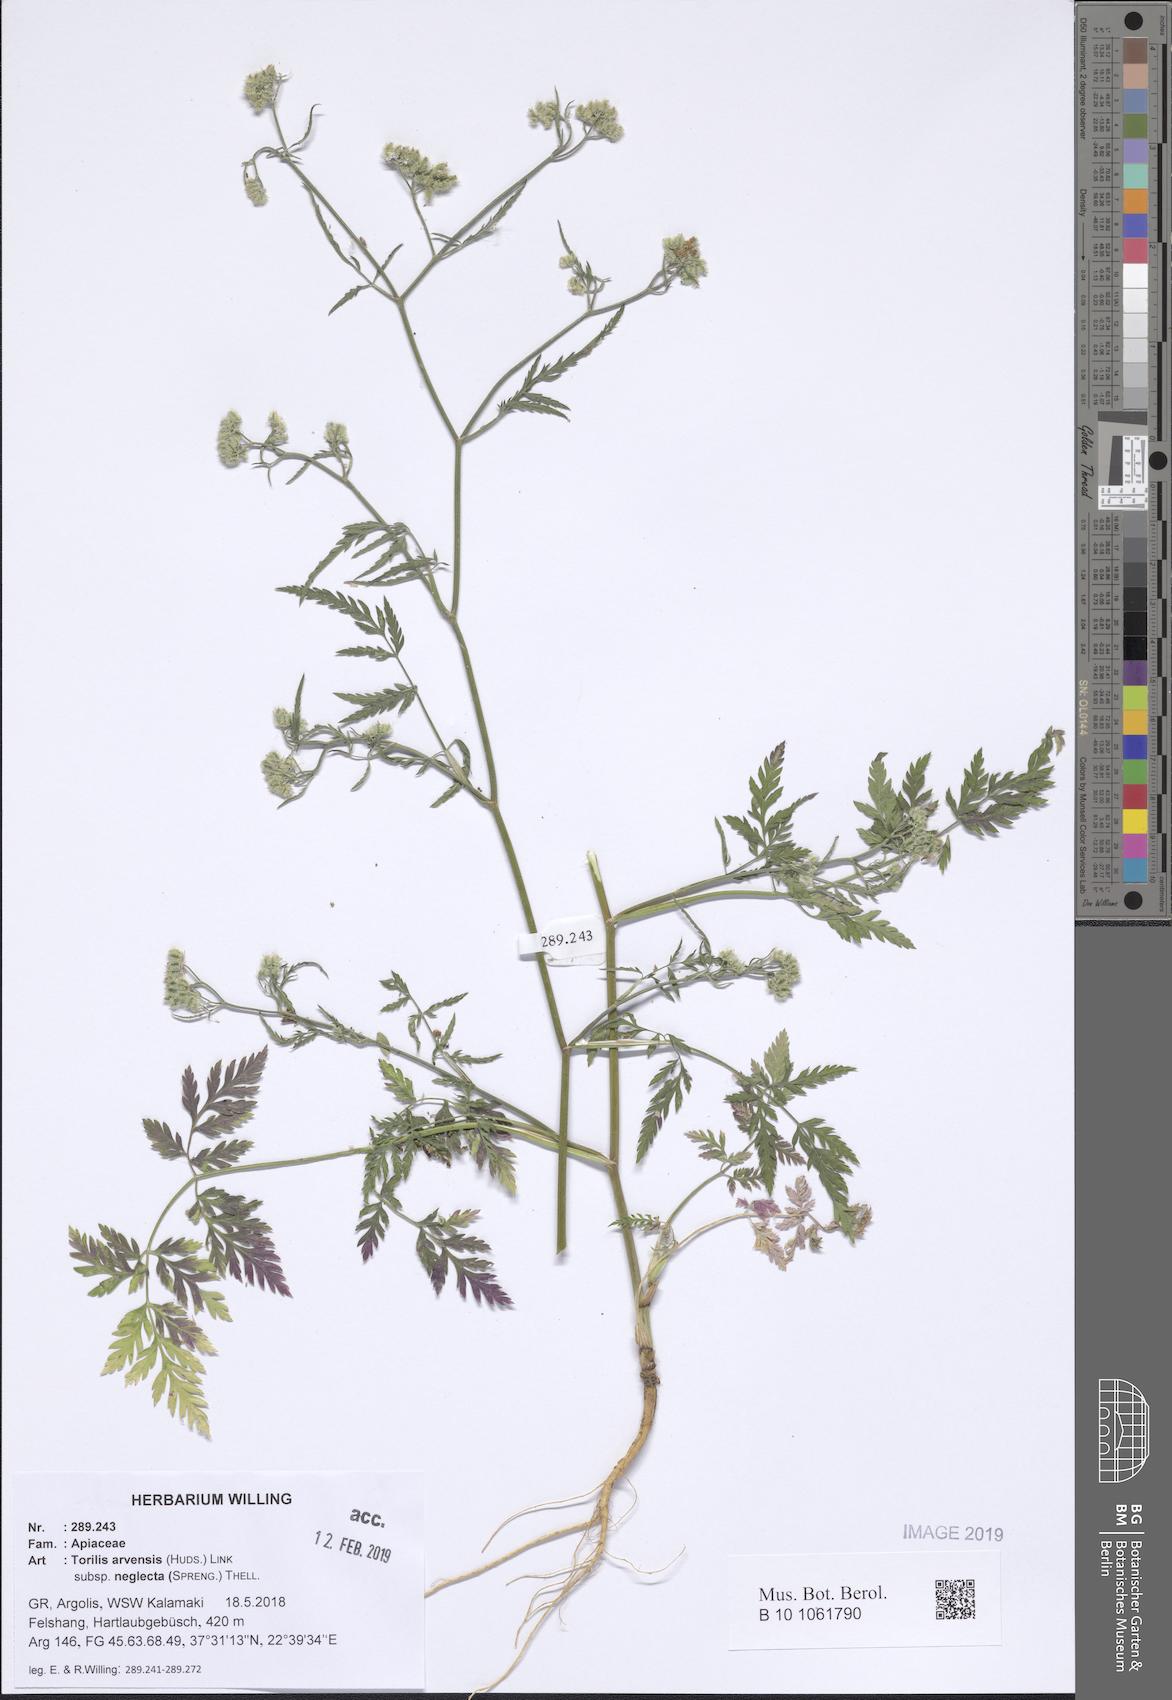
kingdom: Plantae
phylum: Tracheophyta
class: Magnoliopsida
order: Apiales
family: Apiaceae
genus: Torilis
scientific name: Torilis arvensis
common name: Spreading hedge-parsley
